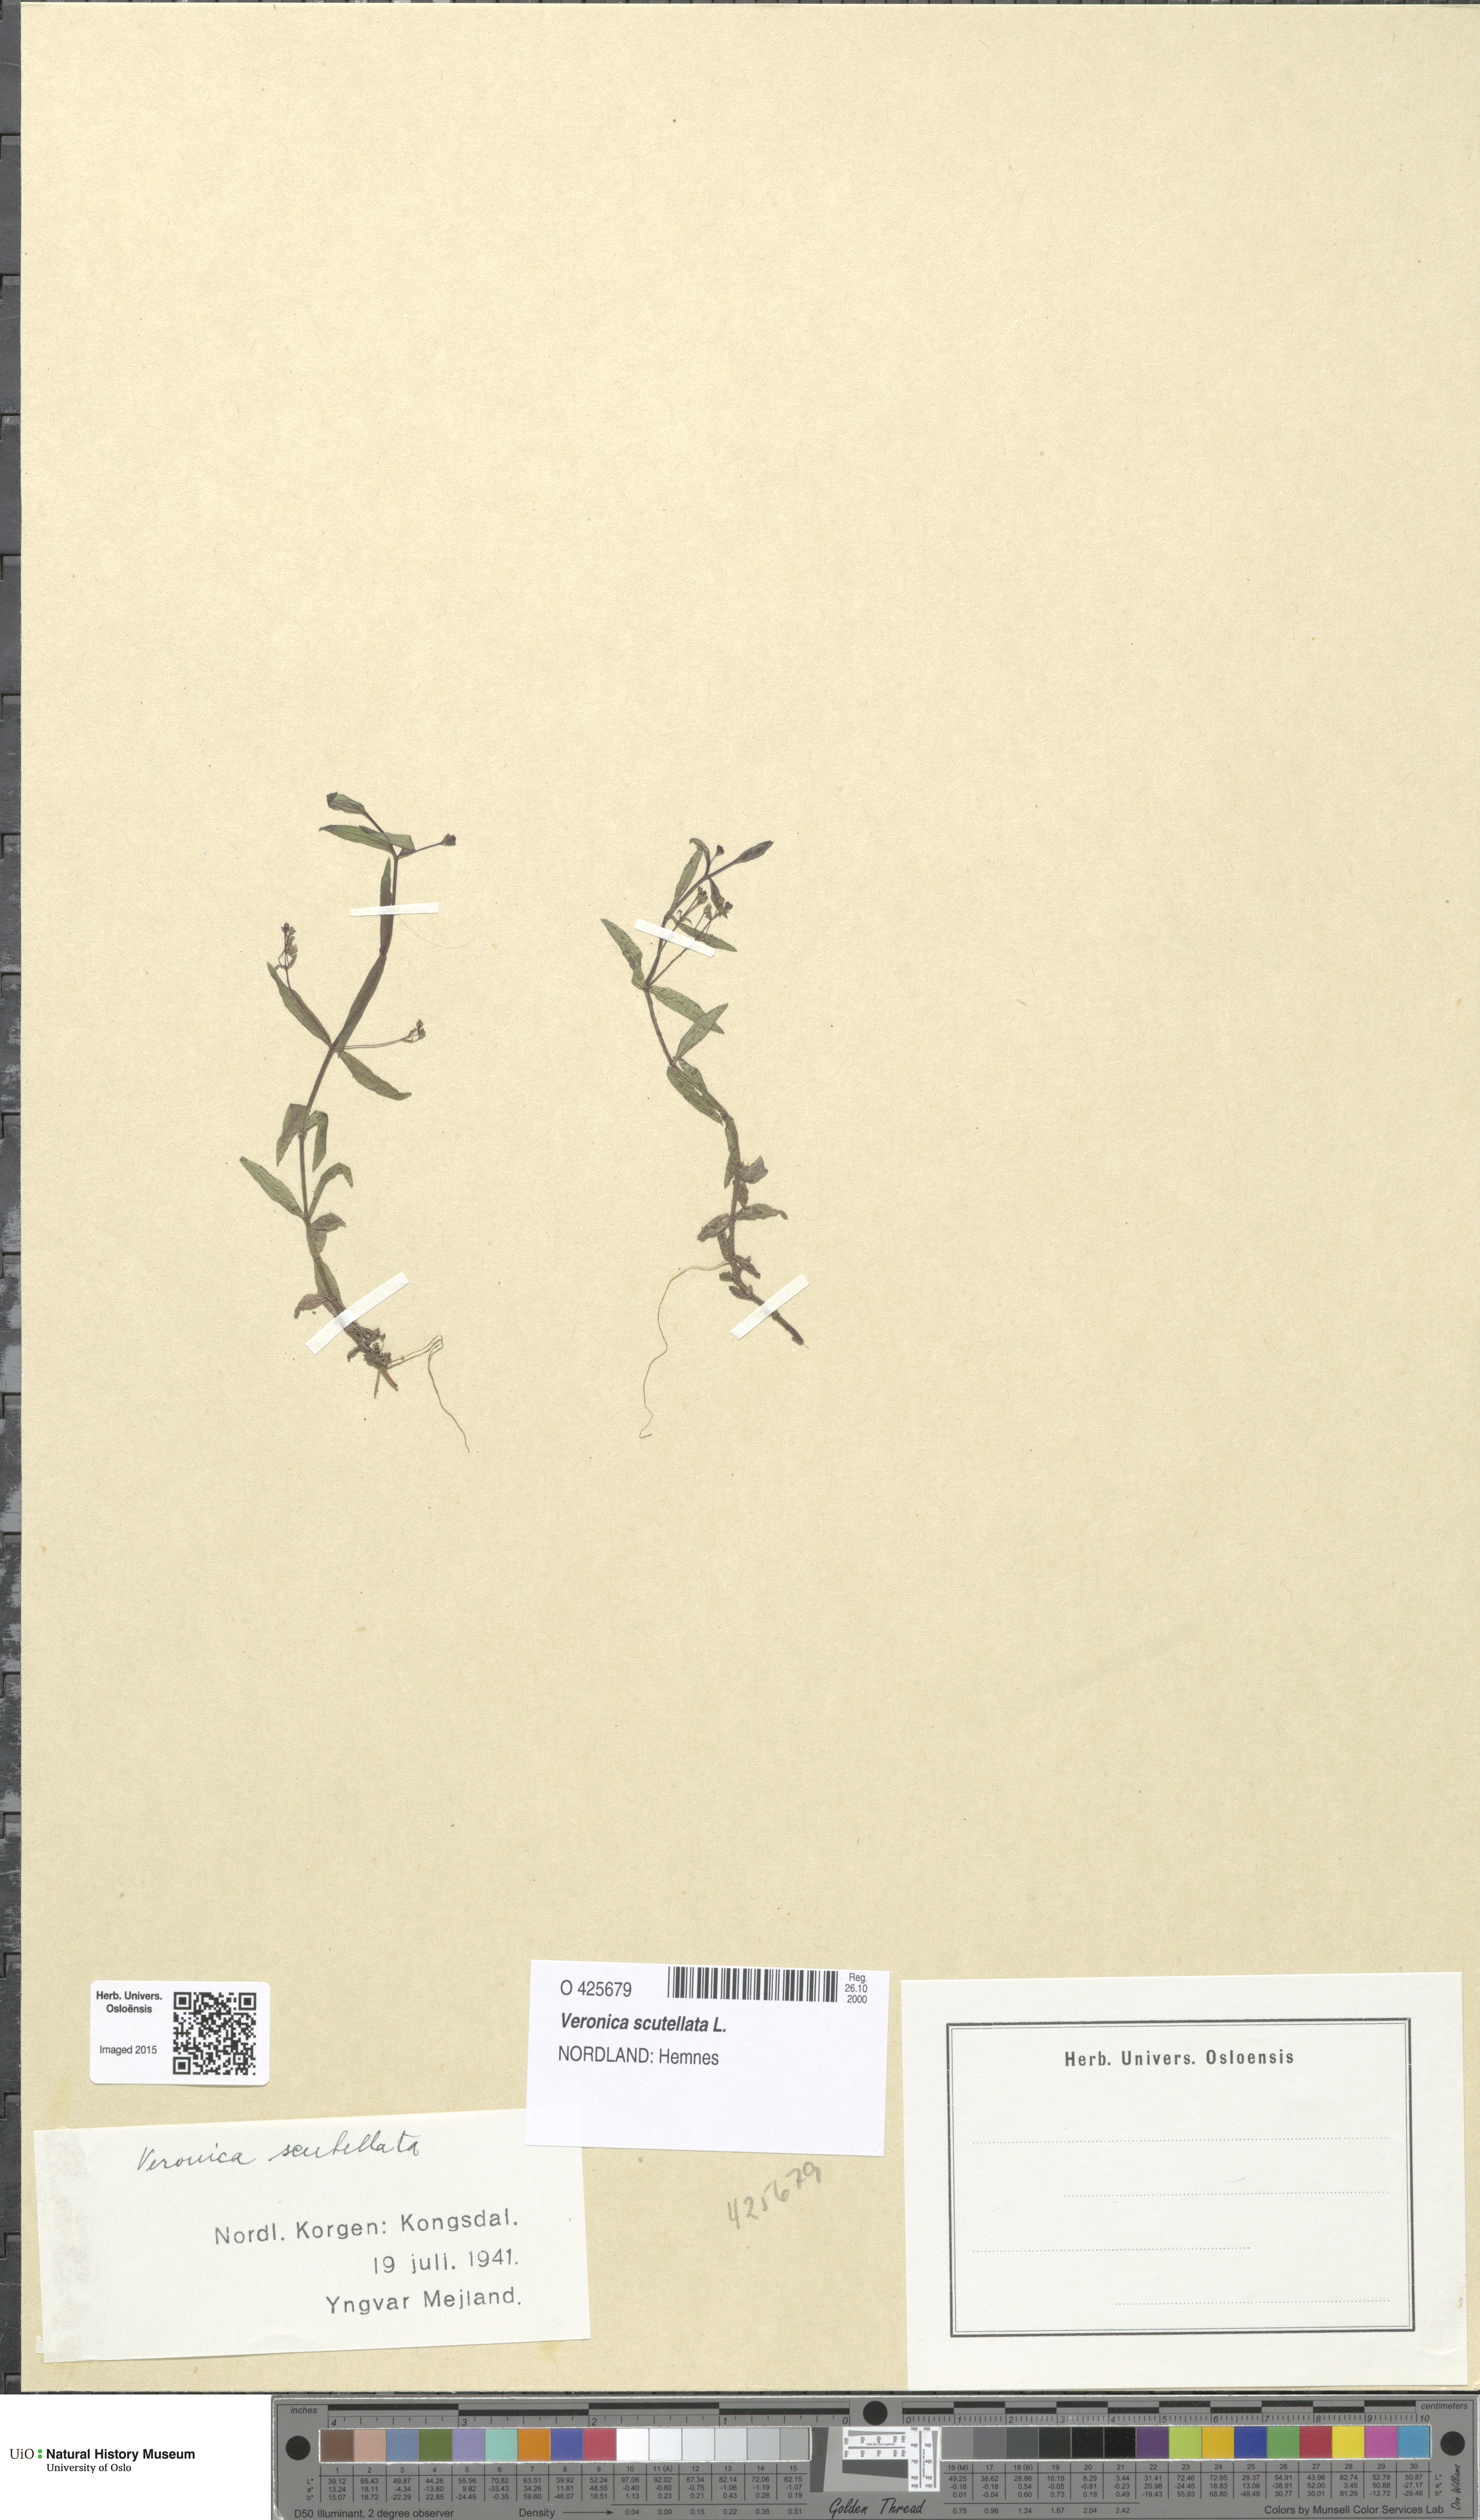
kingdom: Plantae
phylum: Tracheophyta
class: Magnoliopsida
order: Lamiales
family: Plantaginaceae
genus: Veronica
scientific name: Veronica scutellata
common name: Marsh speedwell
